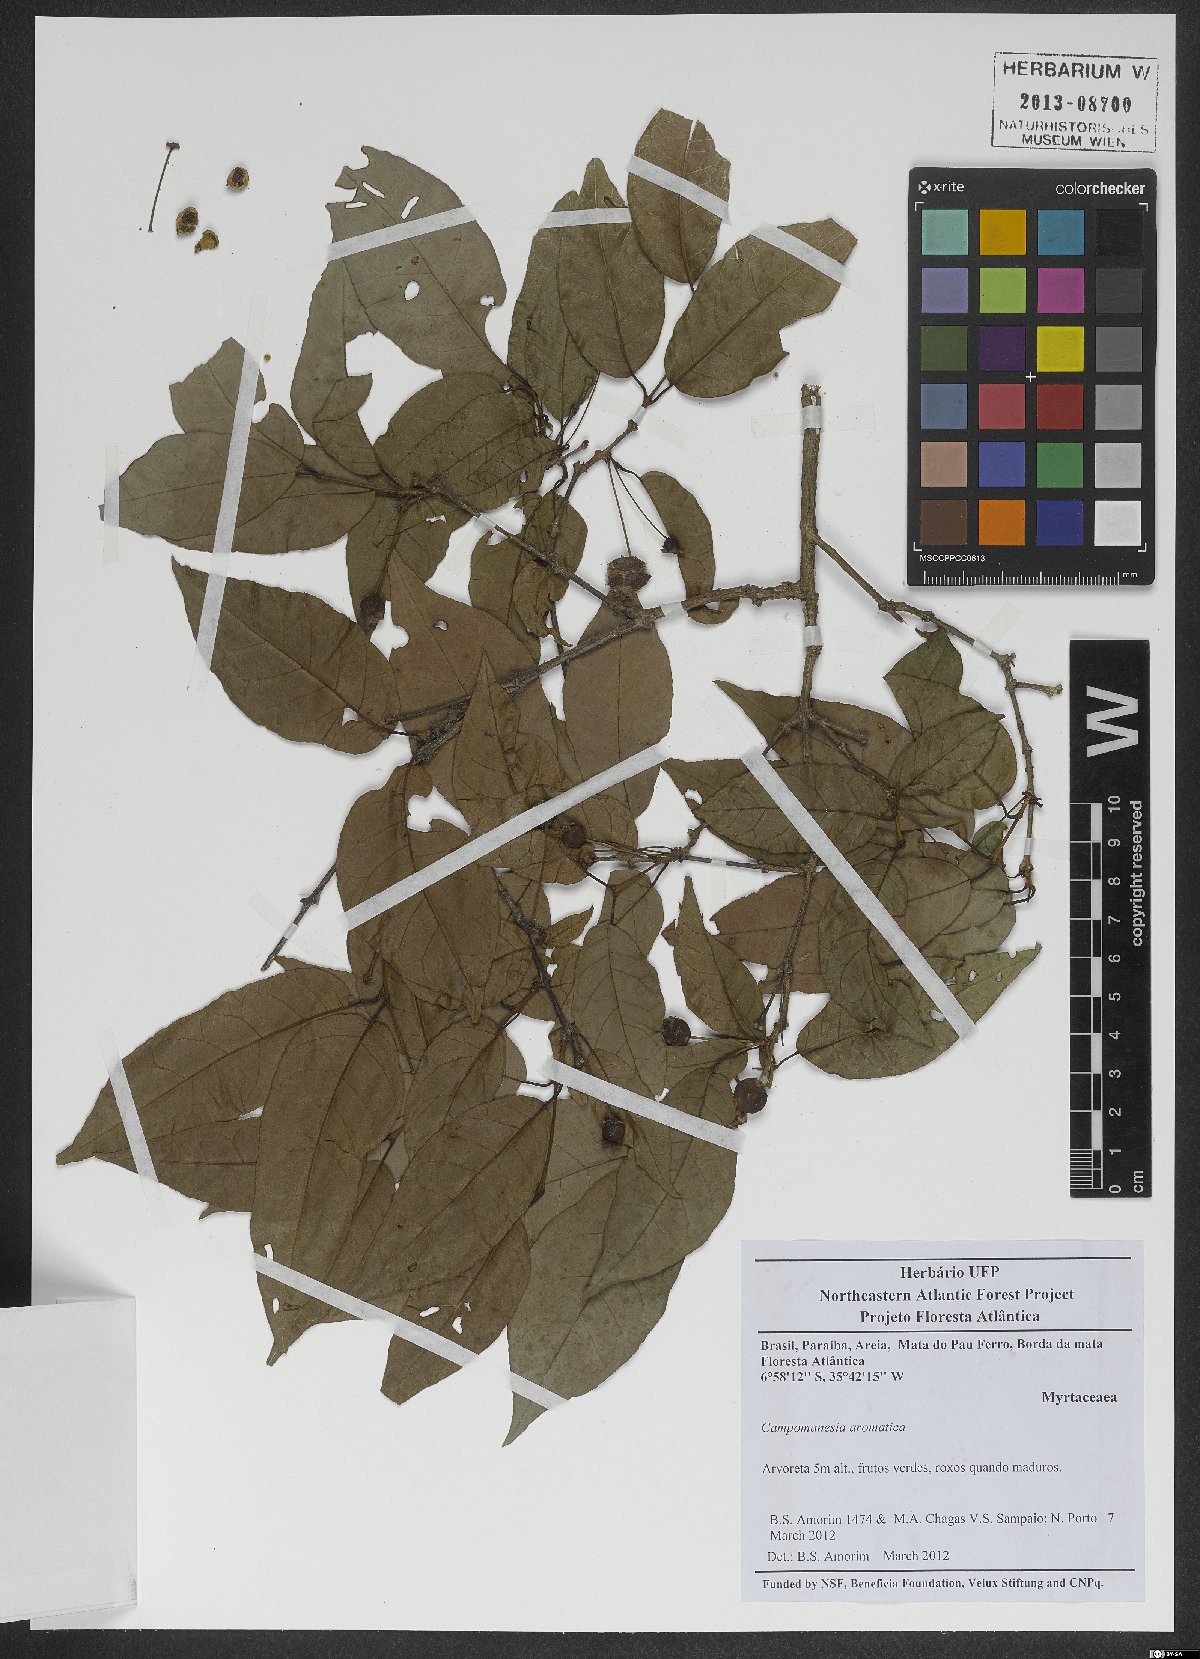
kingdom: Plantae
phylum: Tracheophyta
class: Magnoliopsida
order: Myrtales
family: Myrtaceae
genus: Campomanesia
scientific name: Campomanesia aromatica
